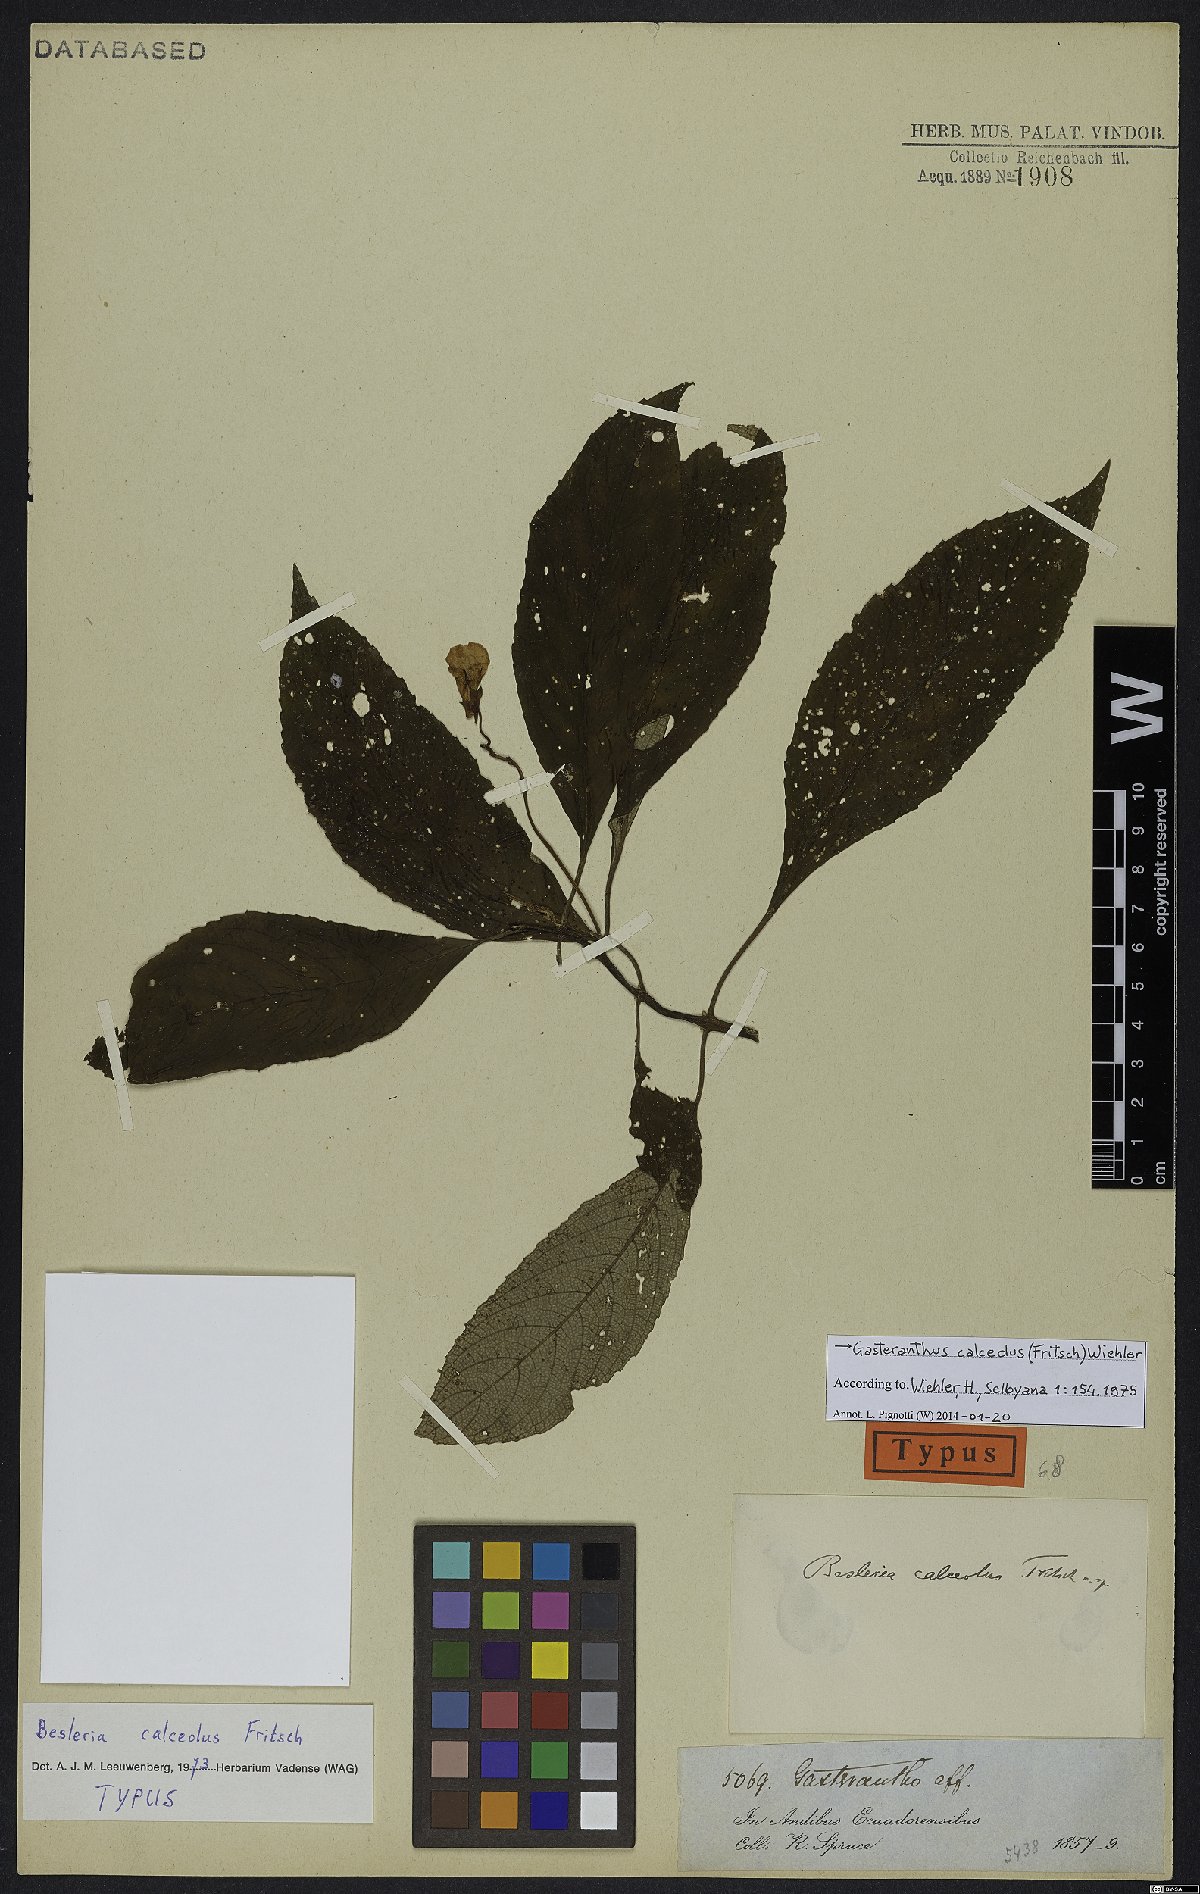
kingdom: Plantae
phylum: Tracheophyta
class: Magnoliopsida
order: Lamiales
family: Gesneriaceae
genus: Gasteranthus
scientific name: Gasteranthus calcaratus
